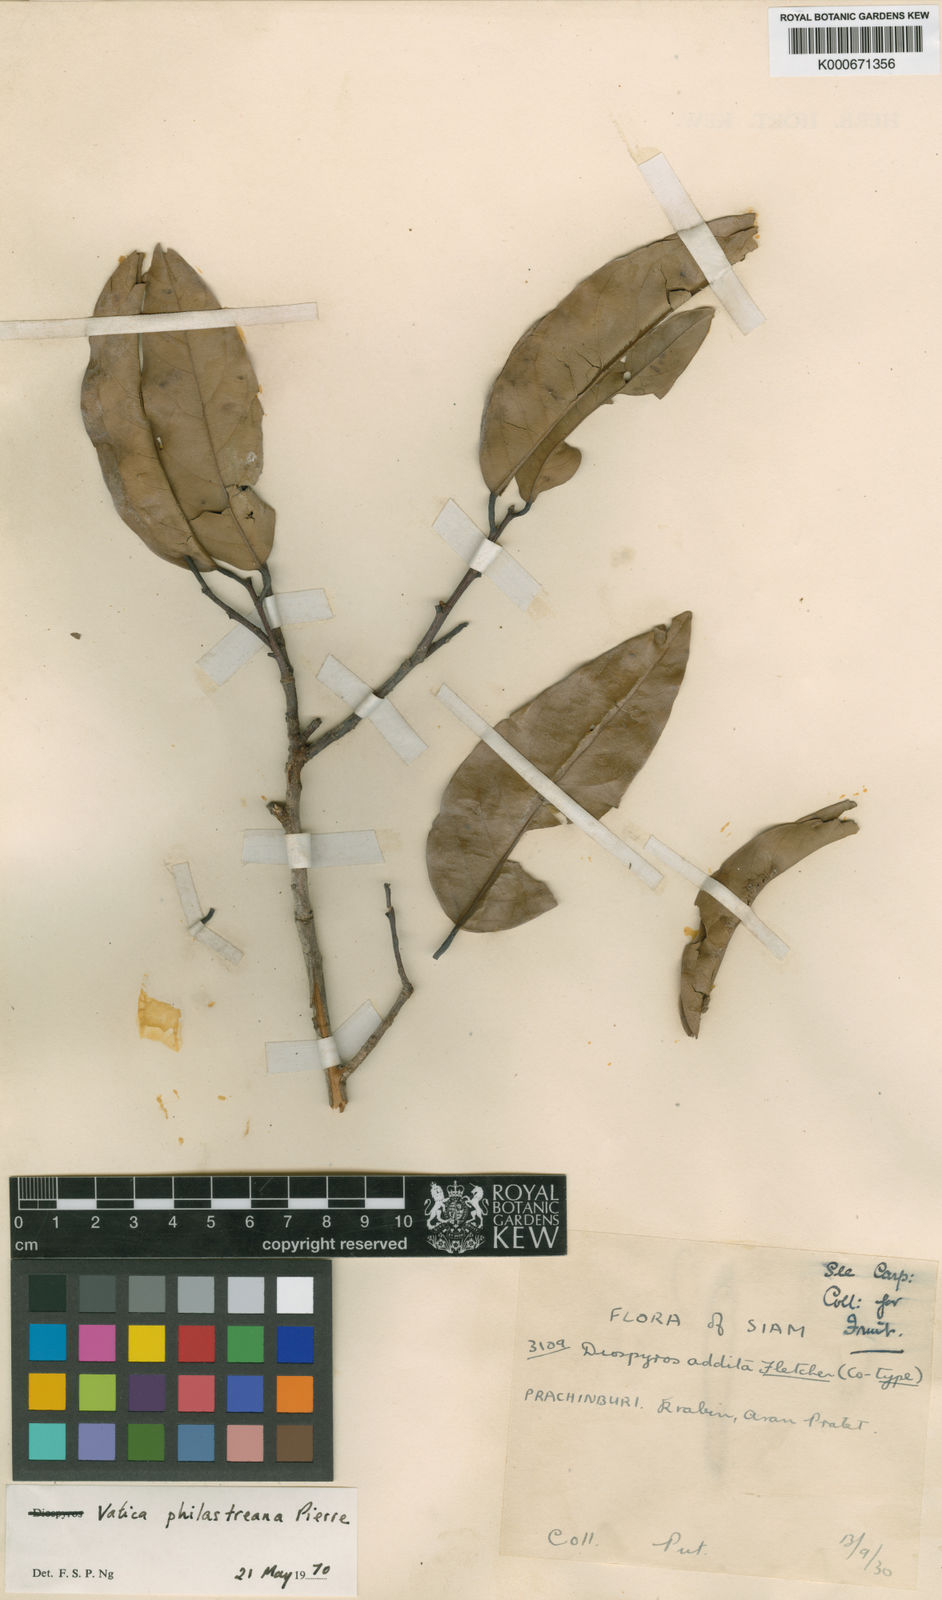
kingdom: Plantae
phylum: Tracheophyta
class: Magnoliopsida
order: Malvales
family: Dipterocarpaceae
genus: Vatica
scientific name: Vatica philastreana
